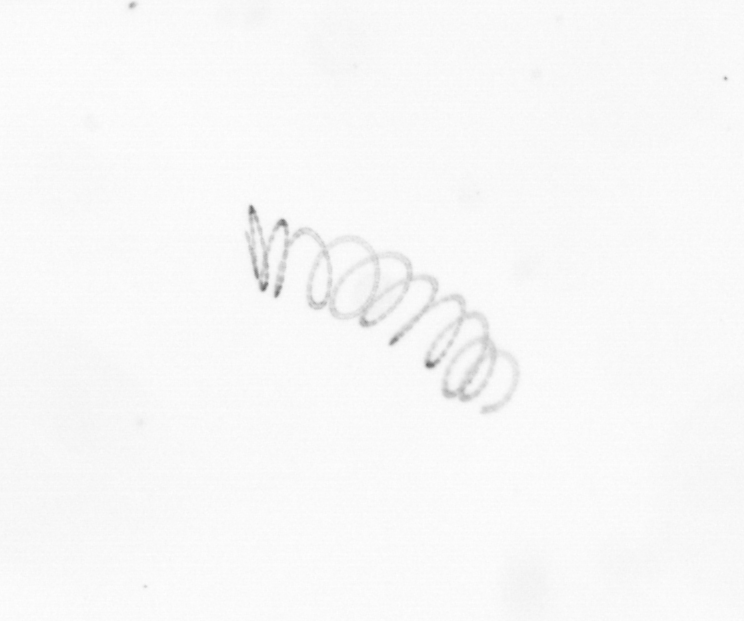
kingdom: Chromista
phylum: Ochrophyta
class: Bacillariophyceae
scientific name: Bacillariophyceae
